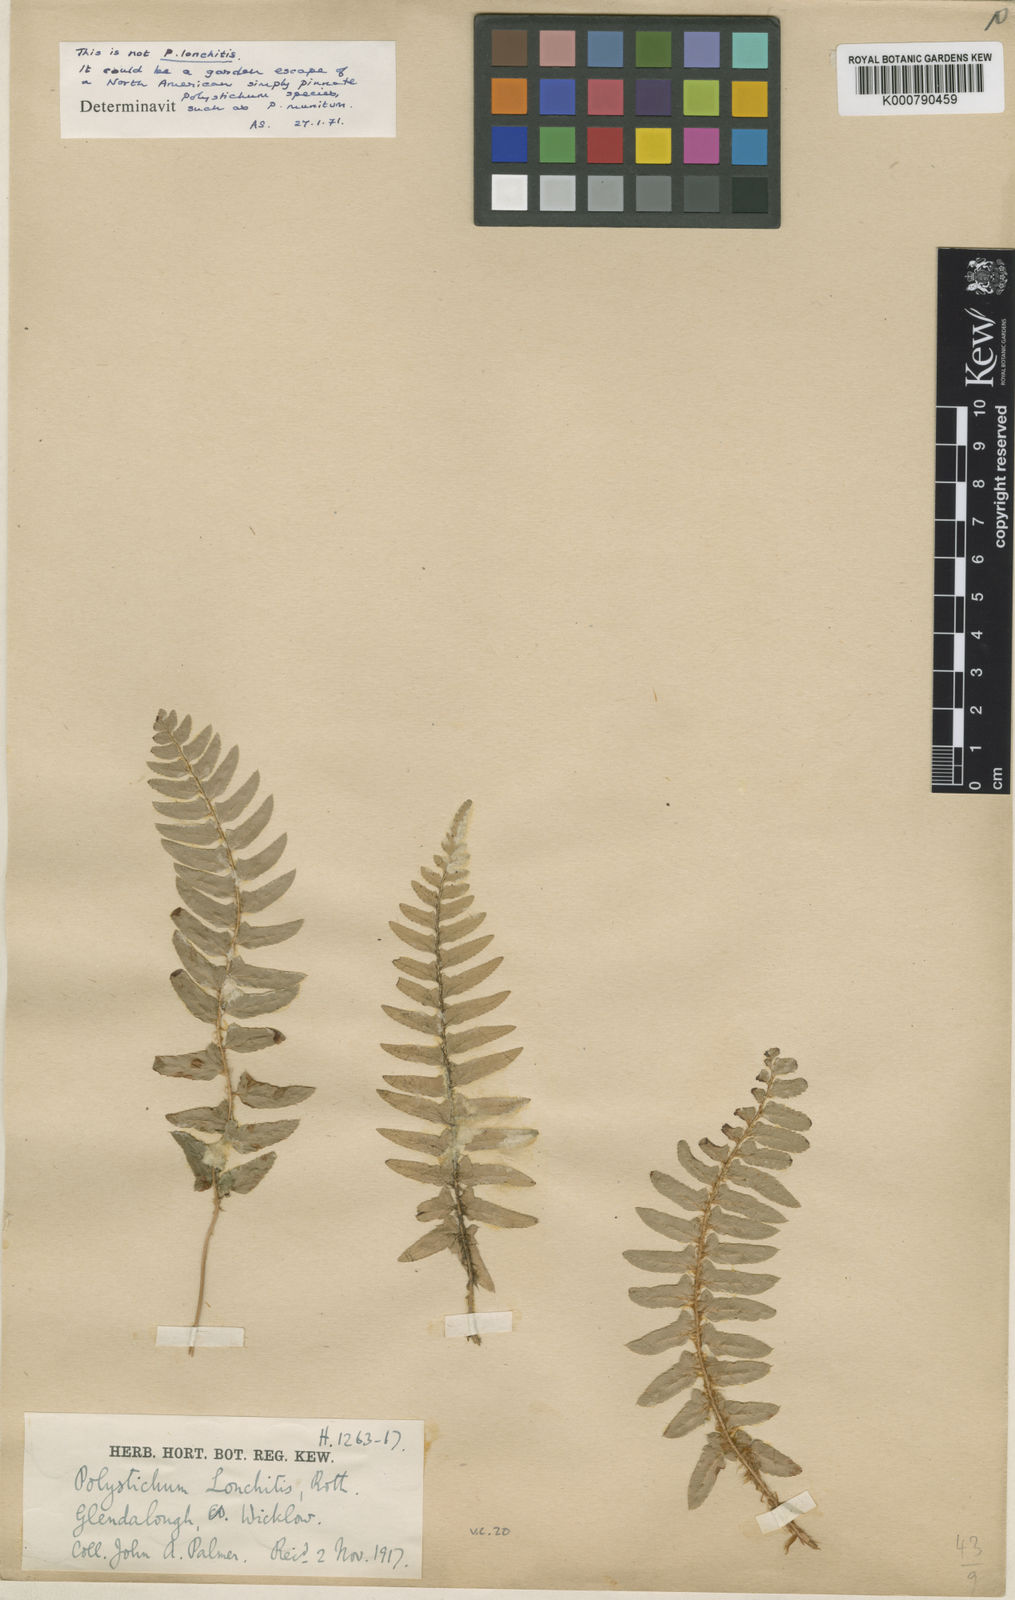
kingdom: Plantae
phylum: Tracheophyta
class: Polypodiopsida
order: Polypodiales
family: Dryopteridaceae
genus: Polystichum
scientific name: Polystichum
